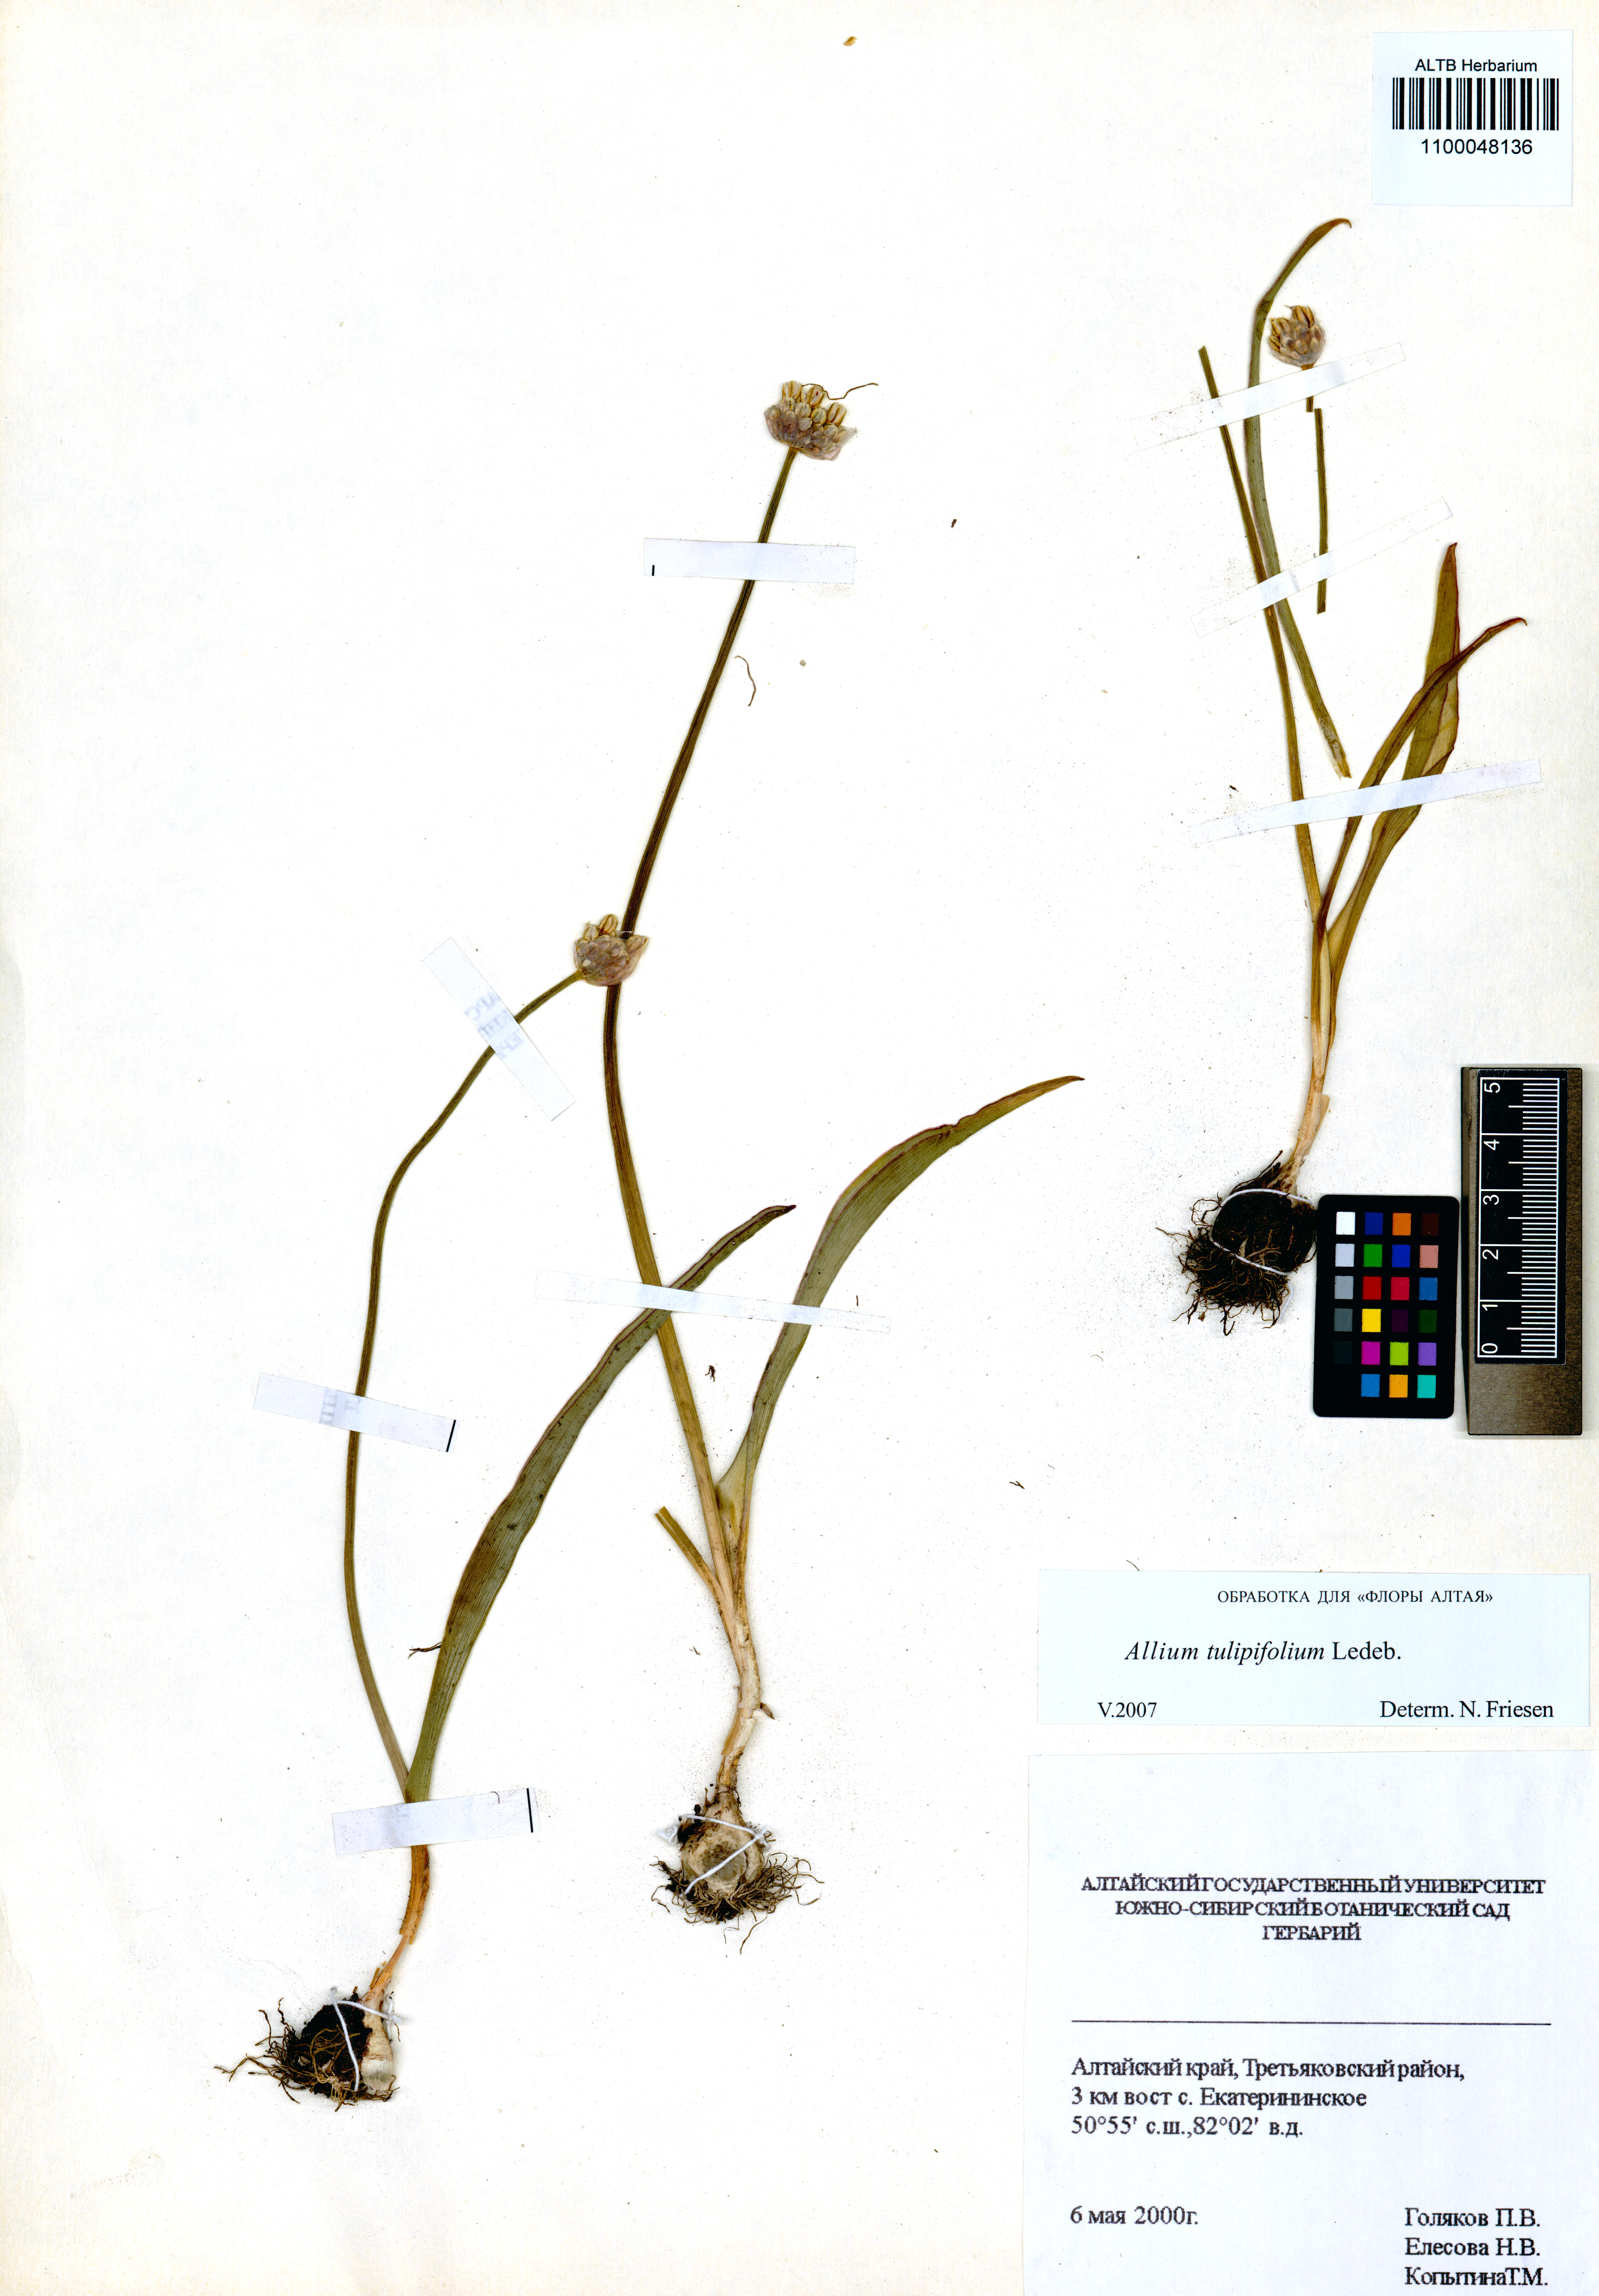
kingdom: Plantae
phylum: Tracheophyta
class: Liliopsida
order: Asparagales
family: Amaryllidaceae
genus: Allium
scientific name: Allium tulipifolium
